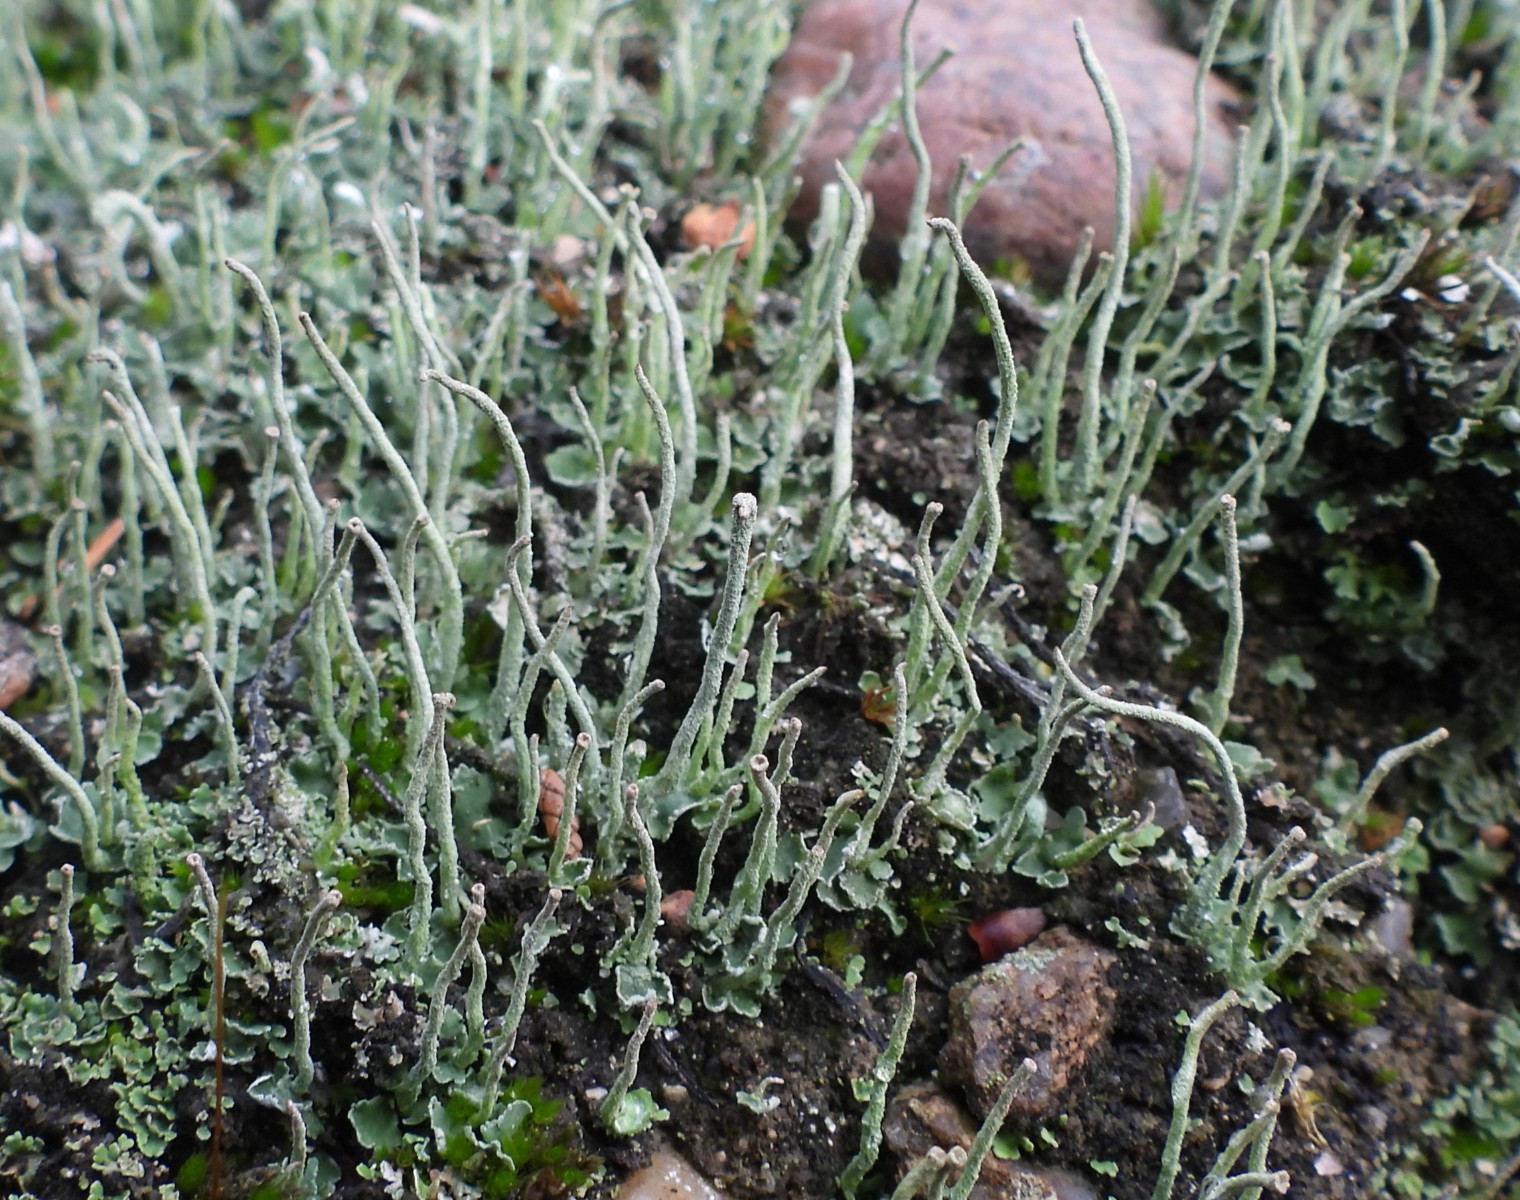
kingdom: Fungi
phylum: Ascomycota
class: Lecanoromycetes
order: Lecanorales
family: Cladoniaceae
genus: Cladonia
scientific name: Cladonia ochrochlora
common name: stød-bægerlav
